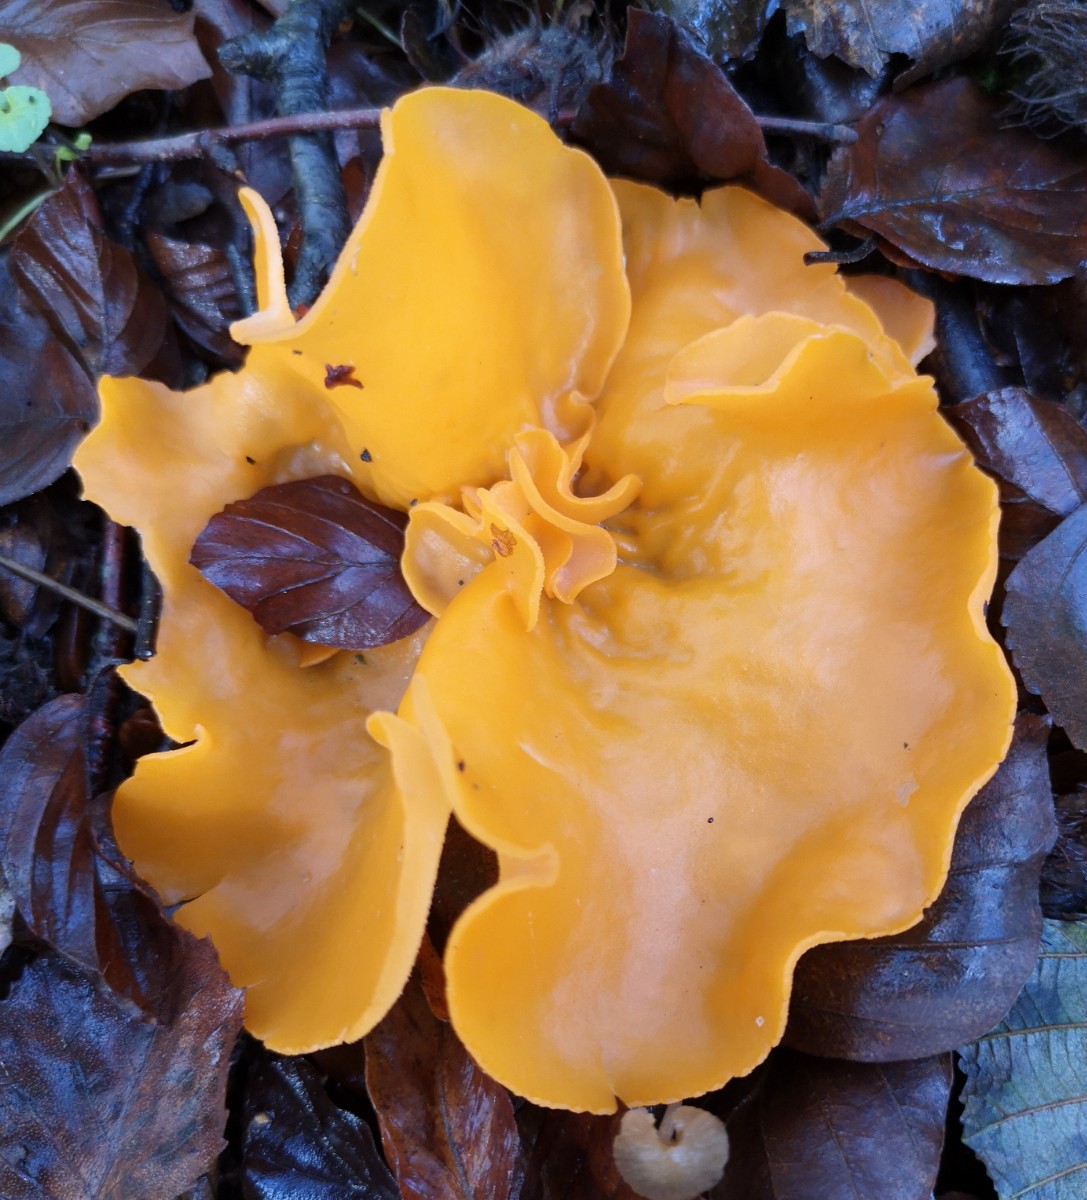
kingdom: Fungi
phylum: Ascomycota
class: Pezizomycetes
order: Pezizales
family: Pyronemataceae
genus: Aleuria
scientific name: Aleuria aurantia
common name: almindelig orangebæger
